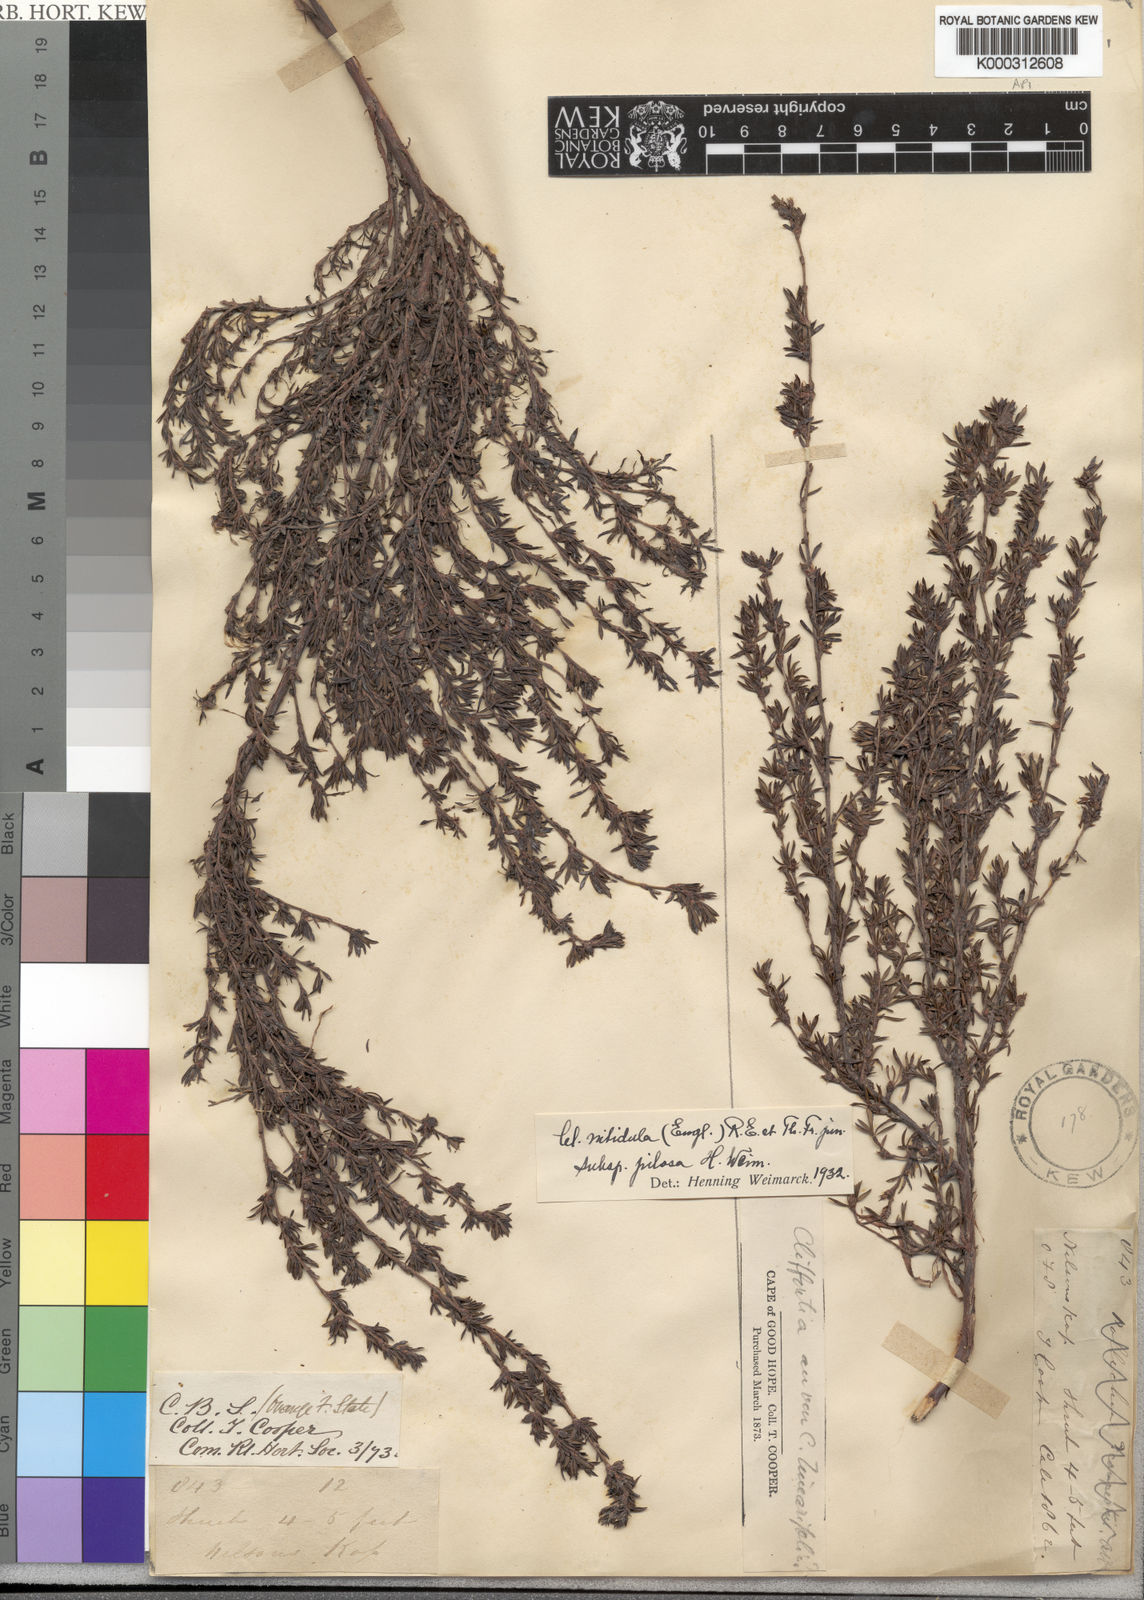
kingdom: Plantae
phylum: Tracheophyta
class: Magnoliopsida
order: Rosales
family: Rosaceae
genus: Cliffortia
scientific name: Cliffortia
